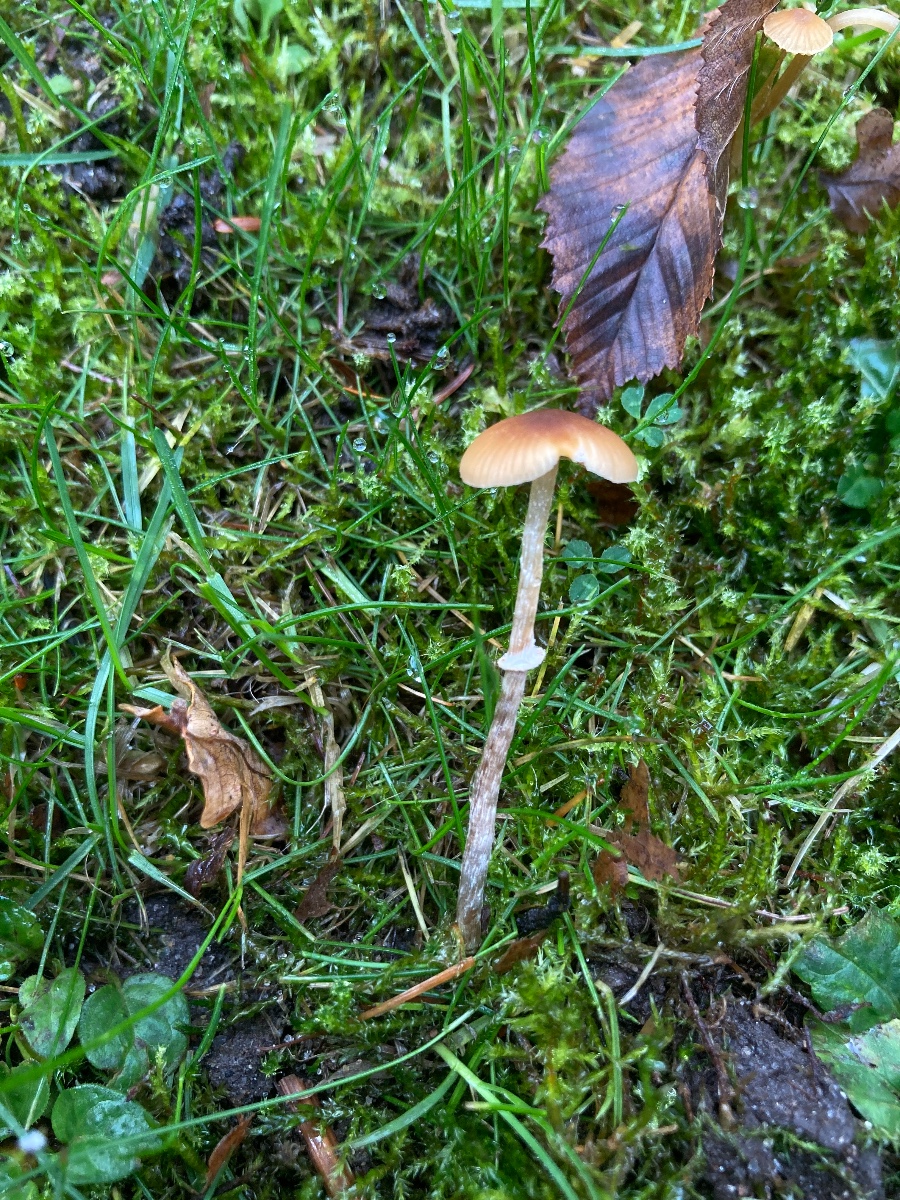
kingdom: Fungi
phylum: Basidiomycota
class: Agaricomycetes
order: Agaricales
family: Bolbitiaceae
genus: Conocybe
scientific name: Conocybe arrhenii
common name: ring-dansehat
